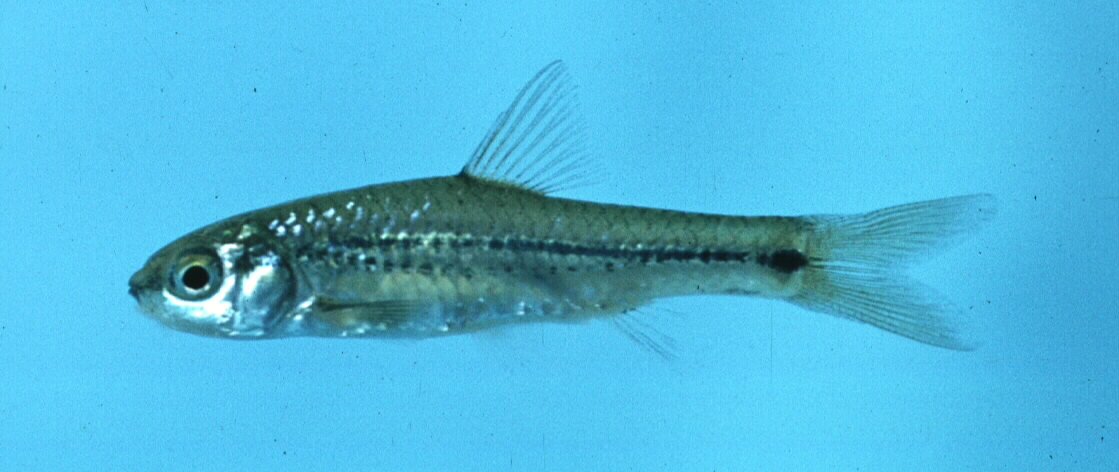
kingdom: Animalia
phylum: Chordata
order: Cypriniformes
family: Cyprinidae
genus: Enteromius
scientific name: Enteromius viviparus
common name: Bowstripe barb
